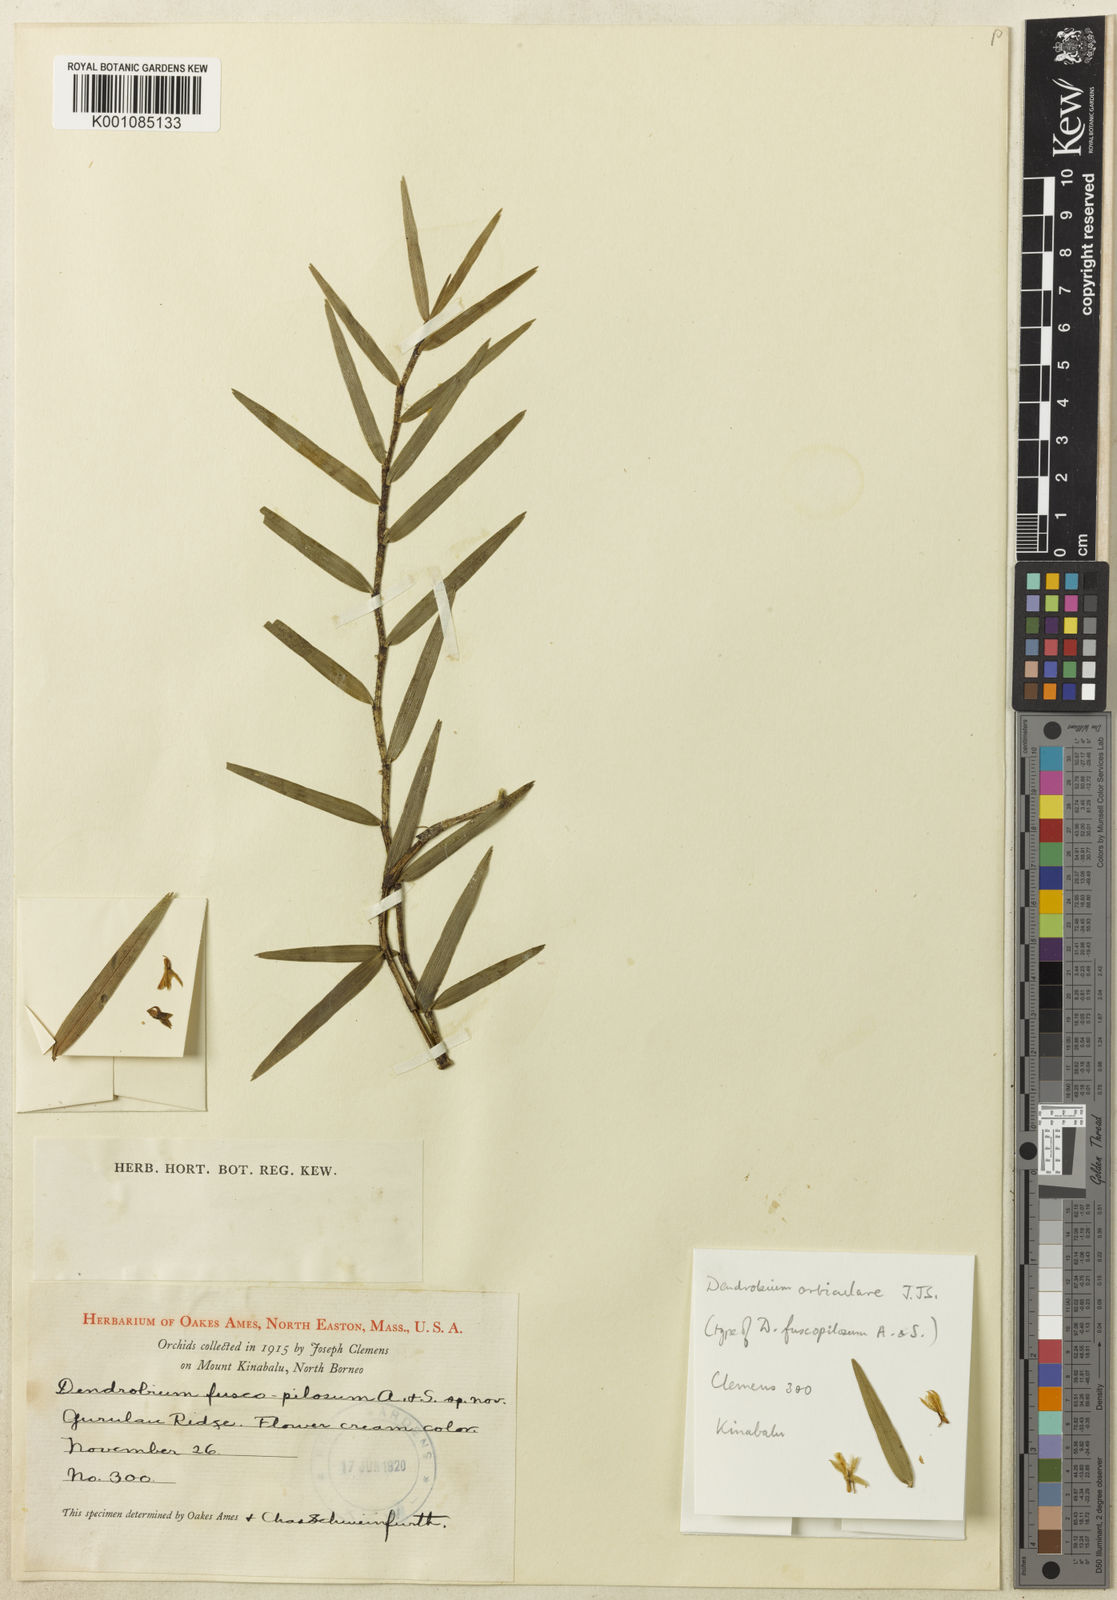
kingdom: Plantae
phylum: Tracheophyta
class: Liliopsida
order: Asparagales
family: Orchidaceae
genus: Dendrobium
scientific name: Dendrobium gramineum
